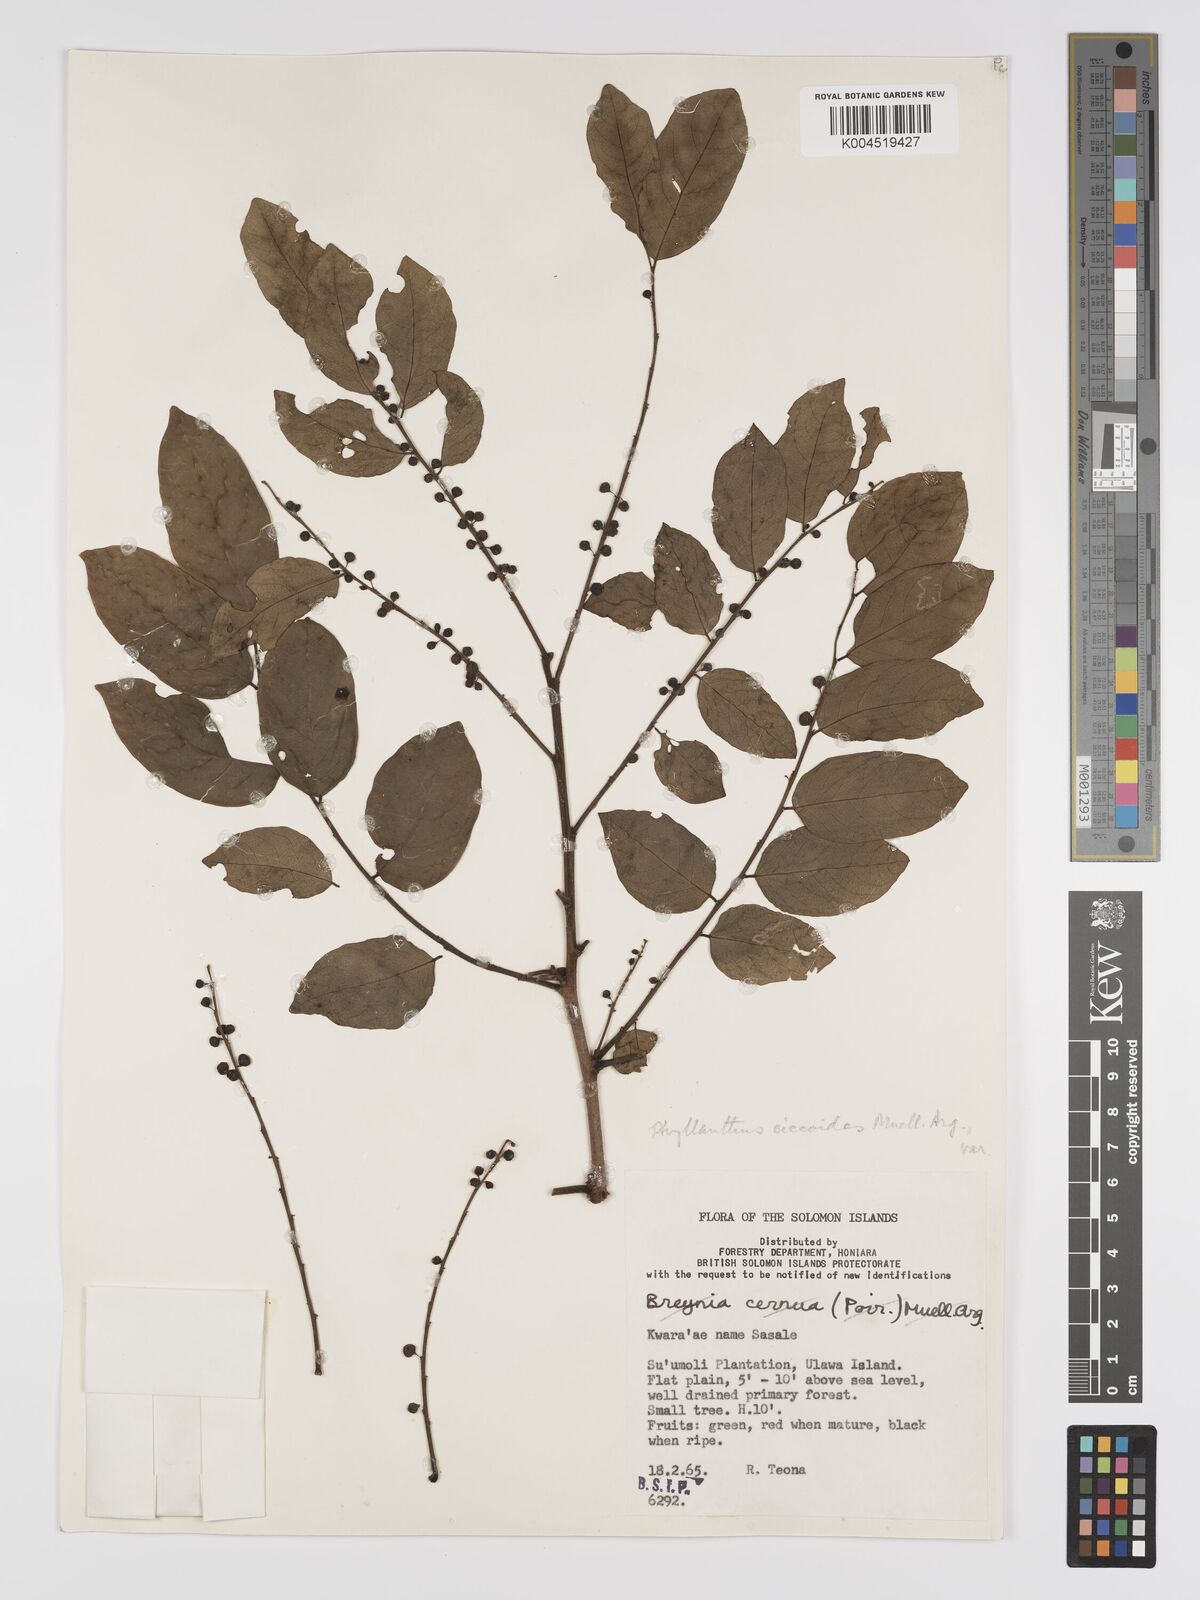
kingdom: Plantae
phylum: Tracheophyta
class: Magnoliopsida
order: Malpighiales
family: Phyllanthaceae
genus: Phyllanthus
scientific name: Phyllanthus ciccoides
